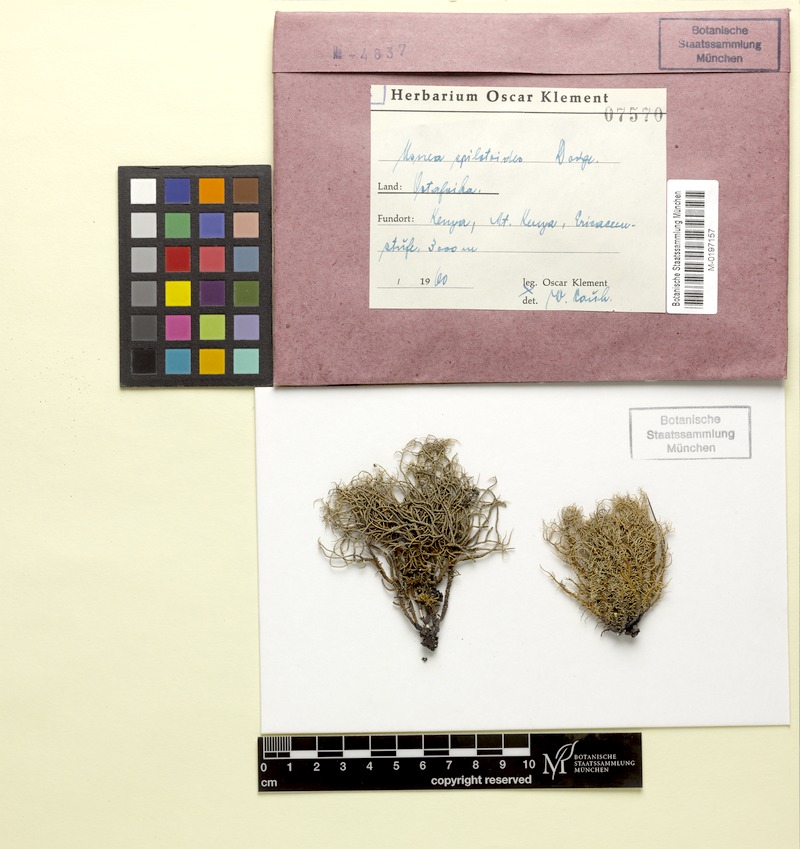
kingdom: Fungi
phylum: Ascomycota
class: Lecanoromycetes
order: Lecanorales
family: Parmeliaceae
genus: Usnea
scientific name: Usnea
